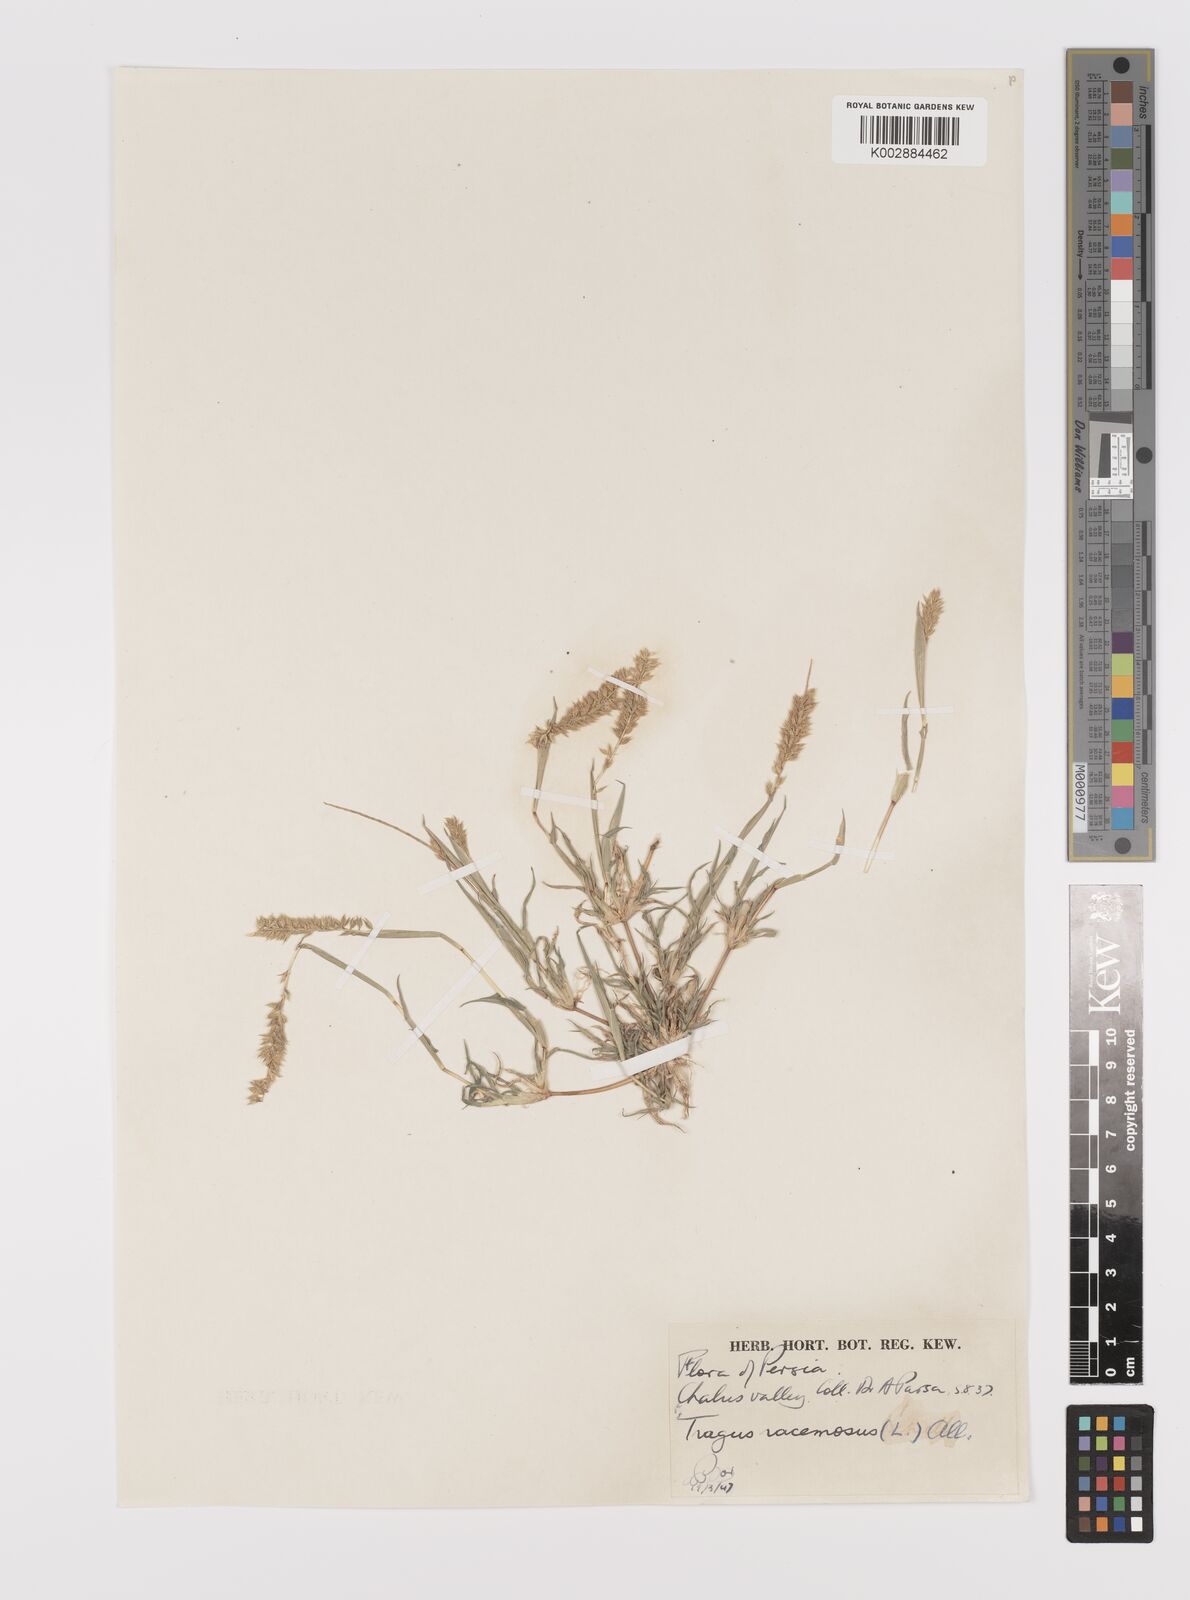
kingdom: Plantae
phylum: Tracheophyta
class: Liliopsida
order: Poales
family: Poaceae
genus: Tragus
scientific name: Tragus racemosus
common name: European bur-grass
